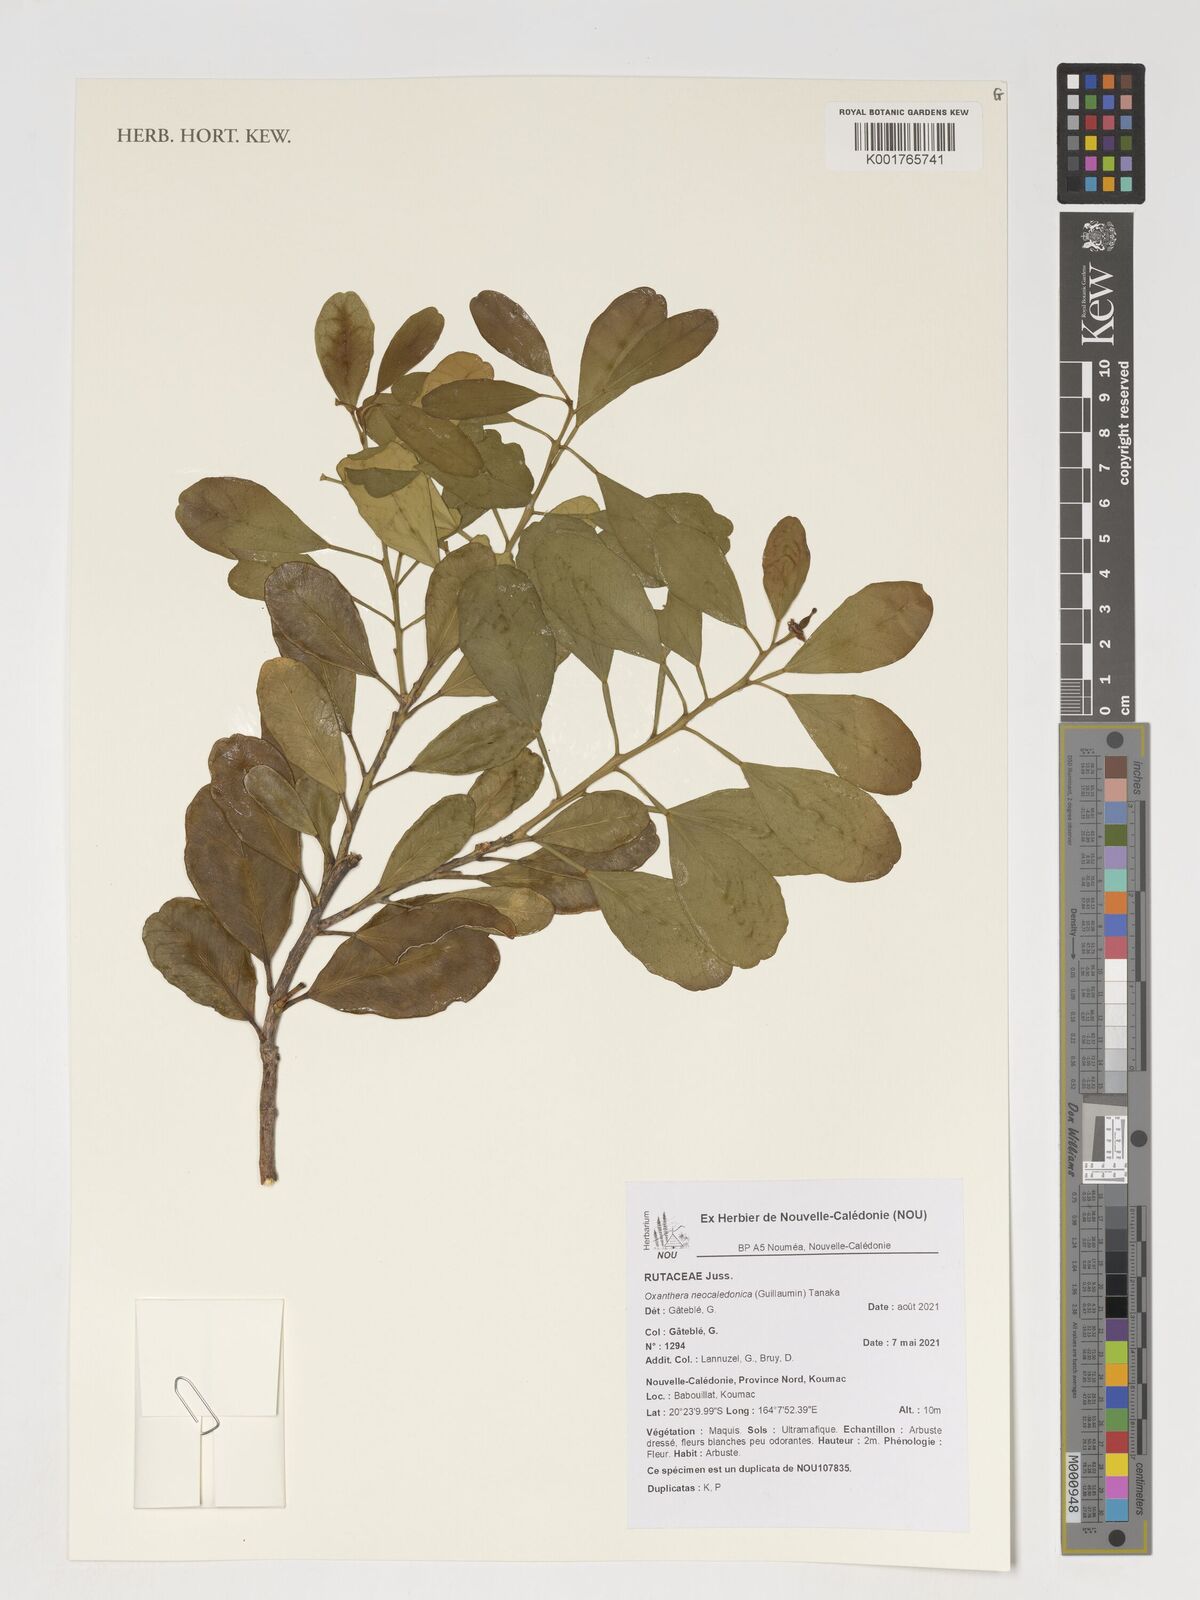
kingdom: Plantae
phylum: Tracheophyta
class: Magnoliopsida
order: Sapindales
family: Rutaceae
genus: Citrus
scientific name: Citrus neocaledonica
